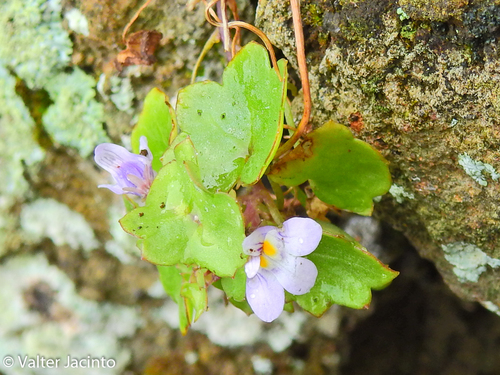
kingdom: Plantae
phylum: Tracheophyta
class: Magnoliopsida
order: Lamiales
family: Plantaginaceae
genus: Cymbalaria
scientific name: Cymbalaria muralis
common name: Ivy-leaved toadflax
